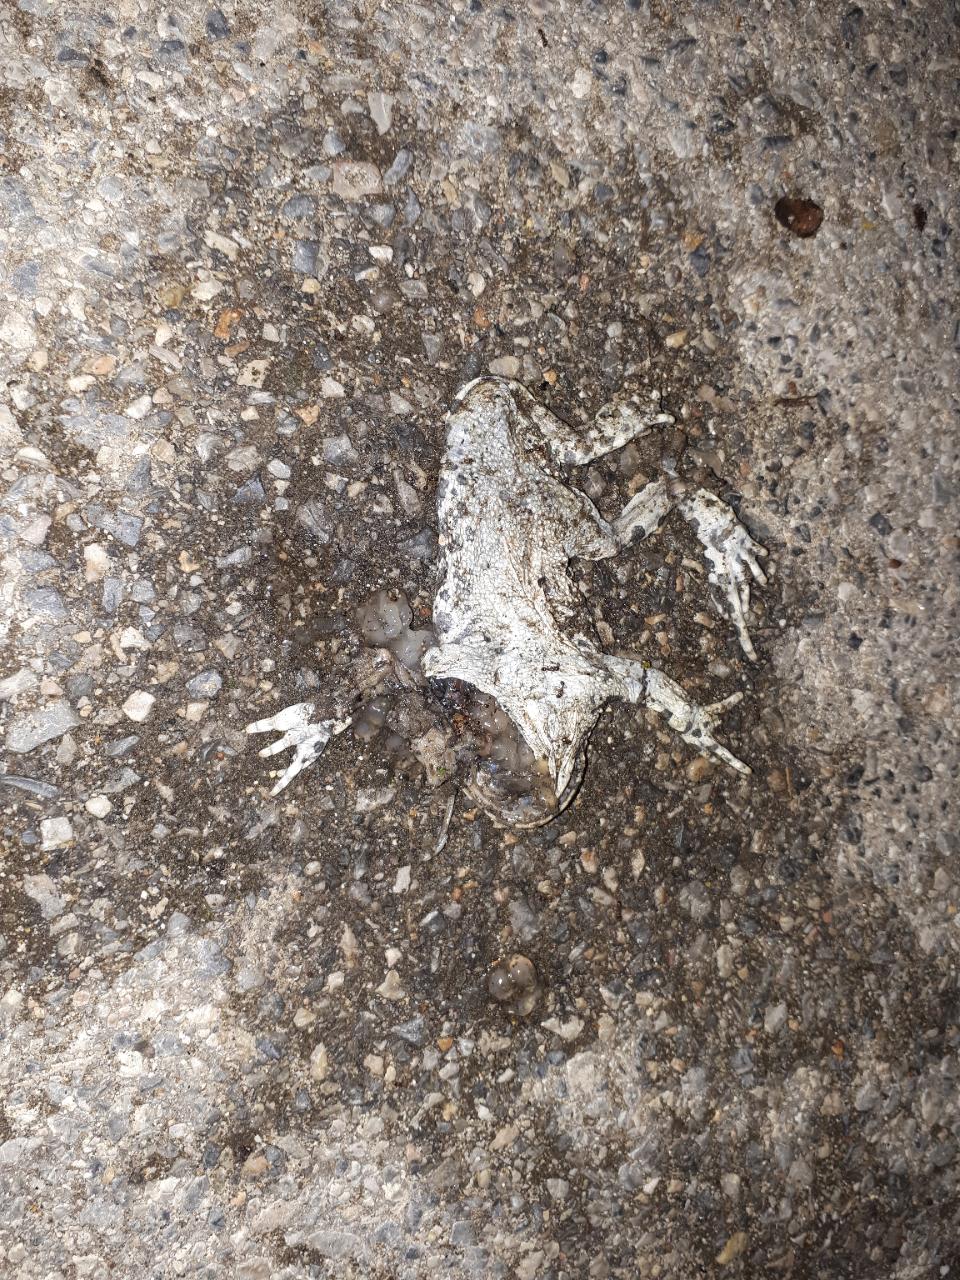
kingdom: Animalia
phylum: Chordata
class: Amphibia
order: Anura
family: Bufonidae
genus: Bufotes
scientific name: Bufotes viridis
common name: European green toad
